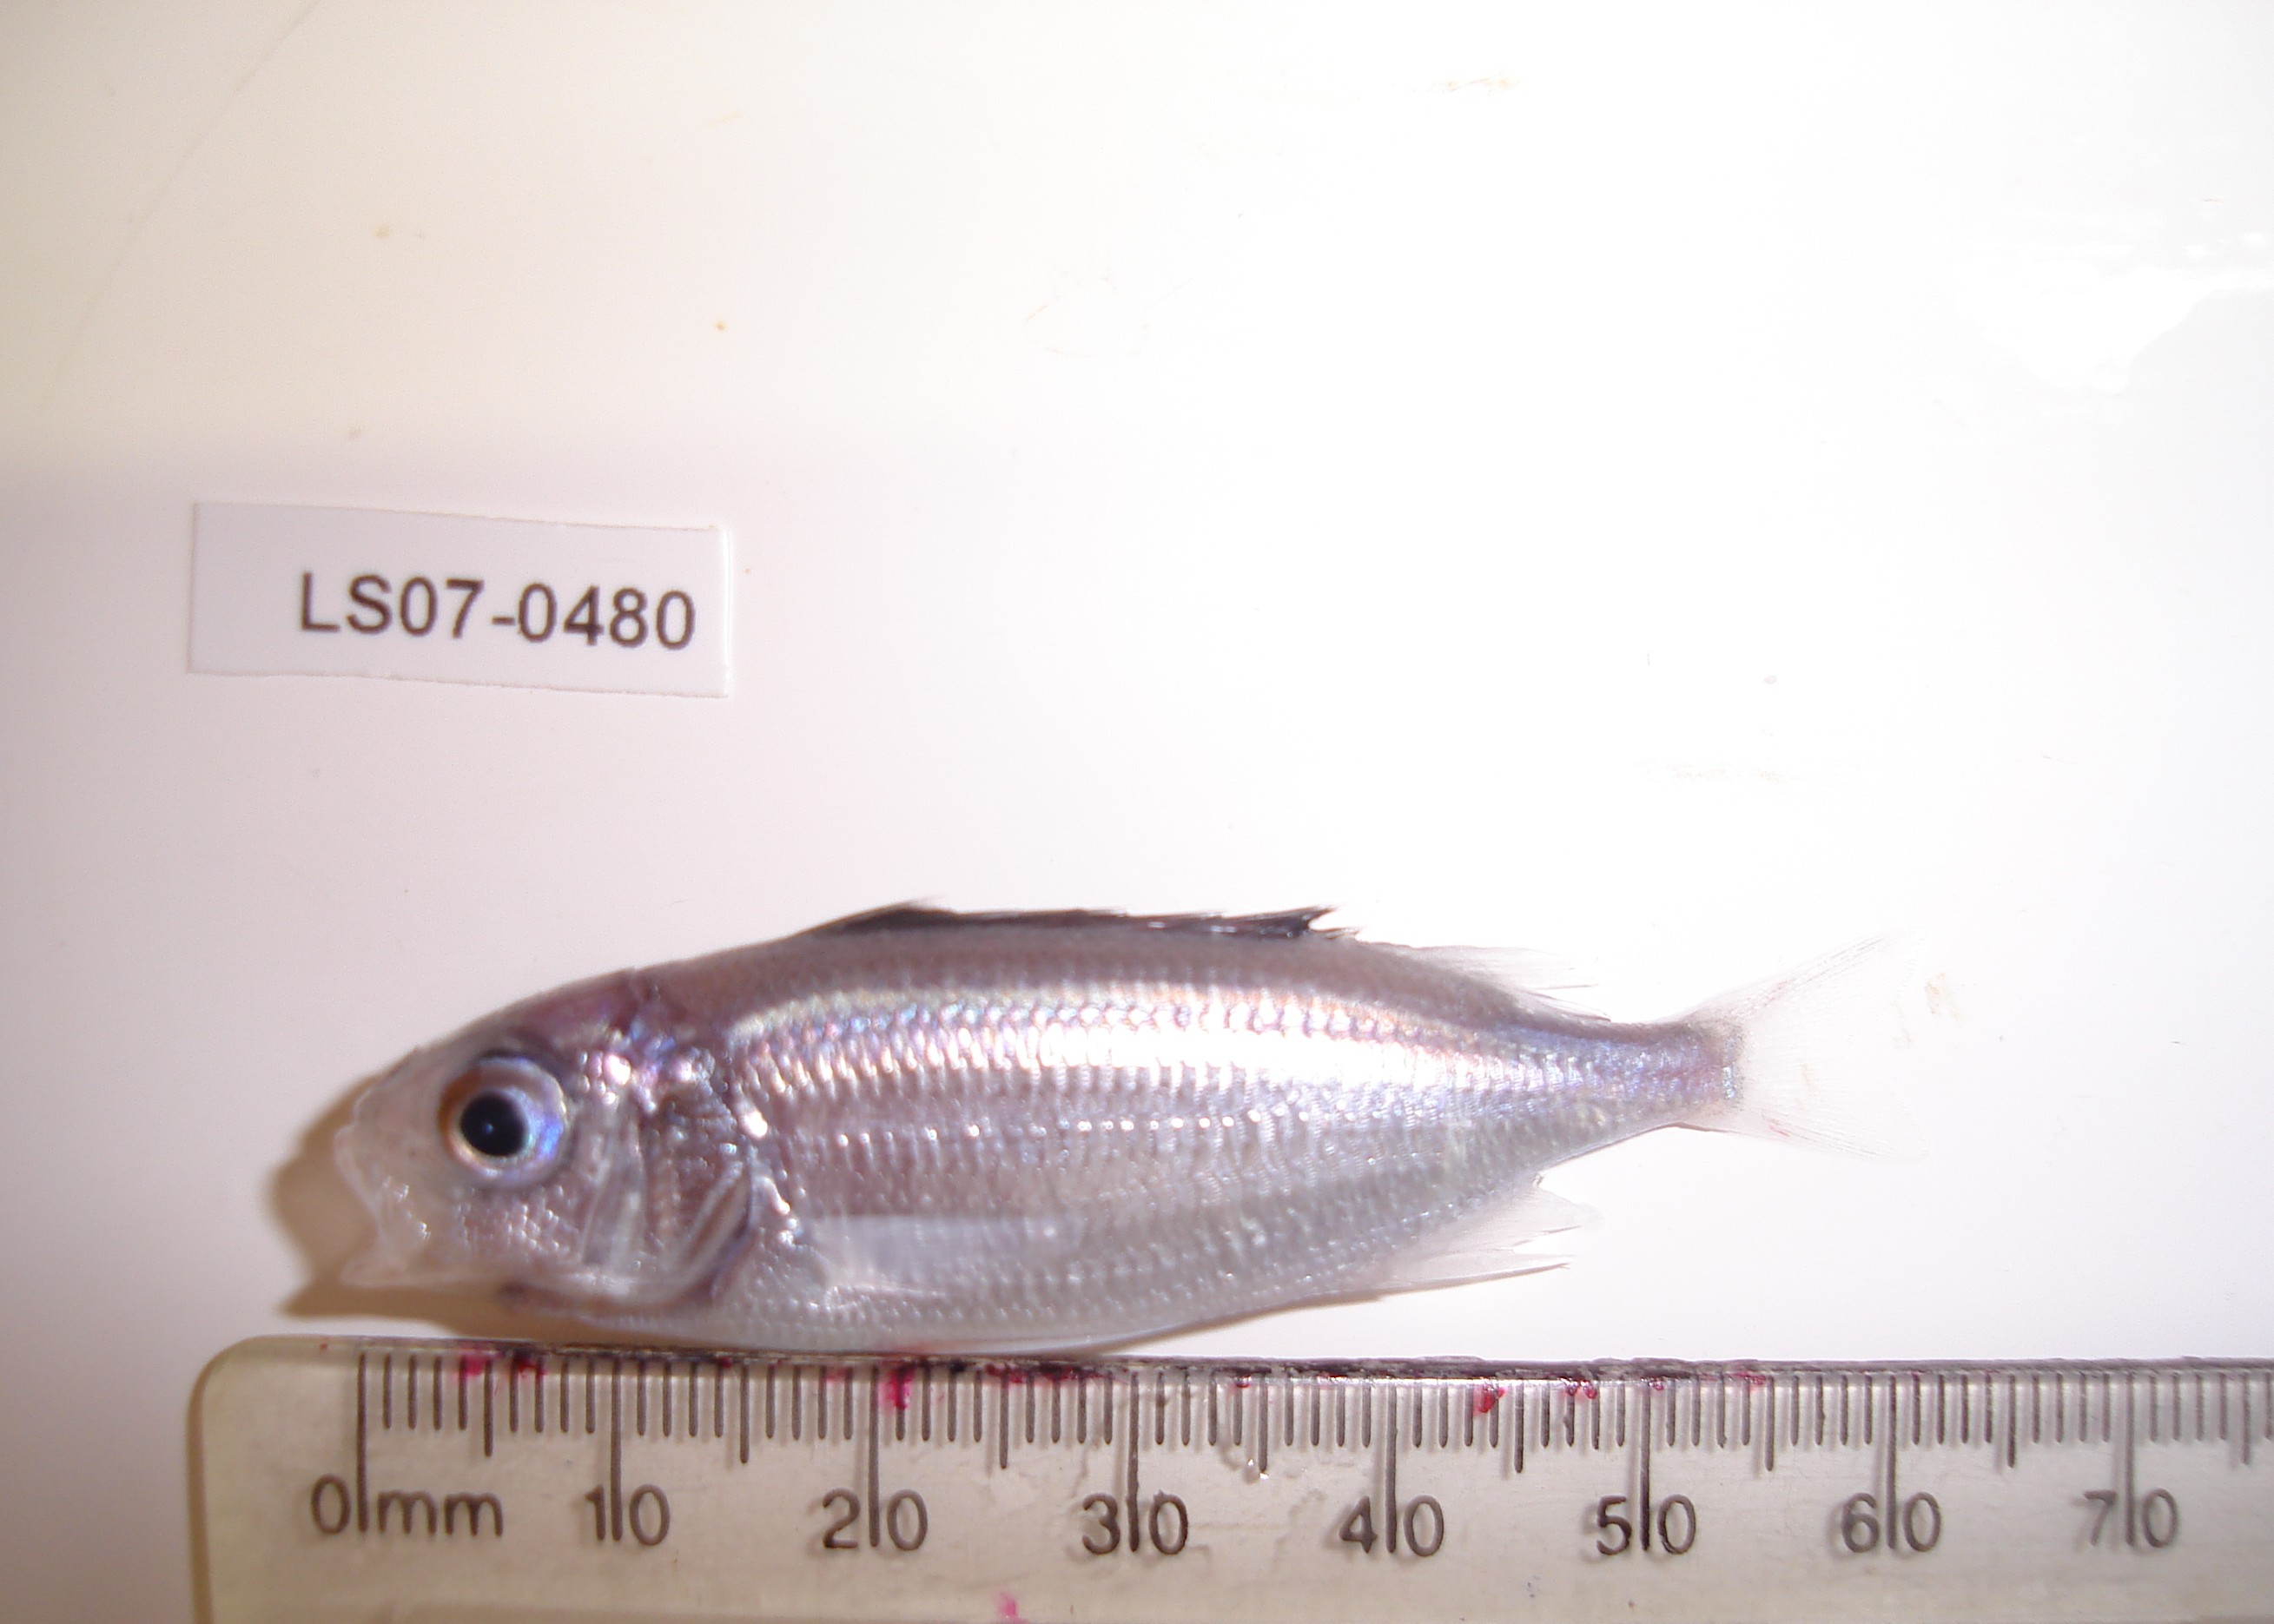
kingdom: Animalia
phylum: Chordata
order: Beryciformes
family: Holocentridae
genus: Neoniphon
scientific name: Neoniphon sammara
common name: Sammara squirrelfish
